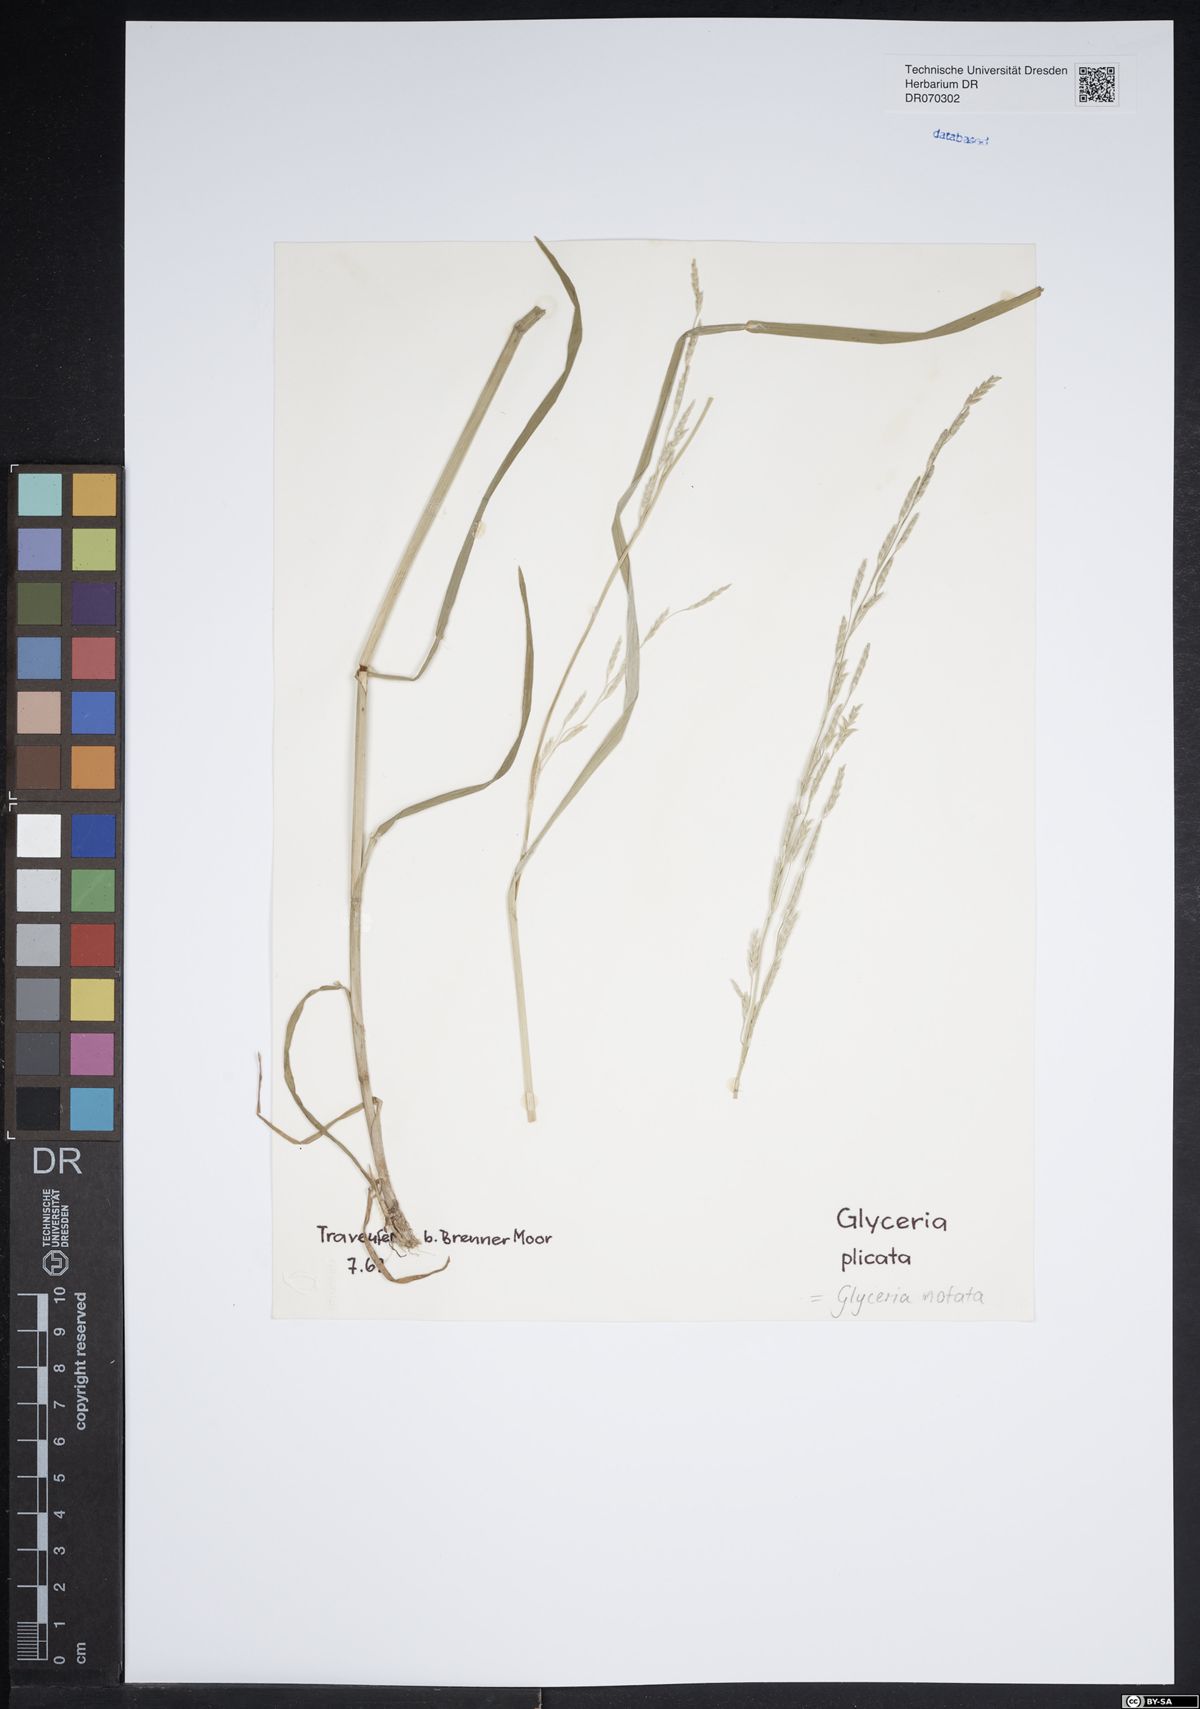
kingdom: Plantae
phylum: Tracheophyta
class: Liliopsida
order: Poales
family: Poaceae
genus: Glyceria
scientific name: Glyceria notata
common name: Plicate sweet-grass
